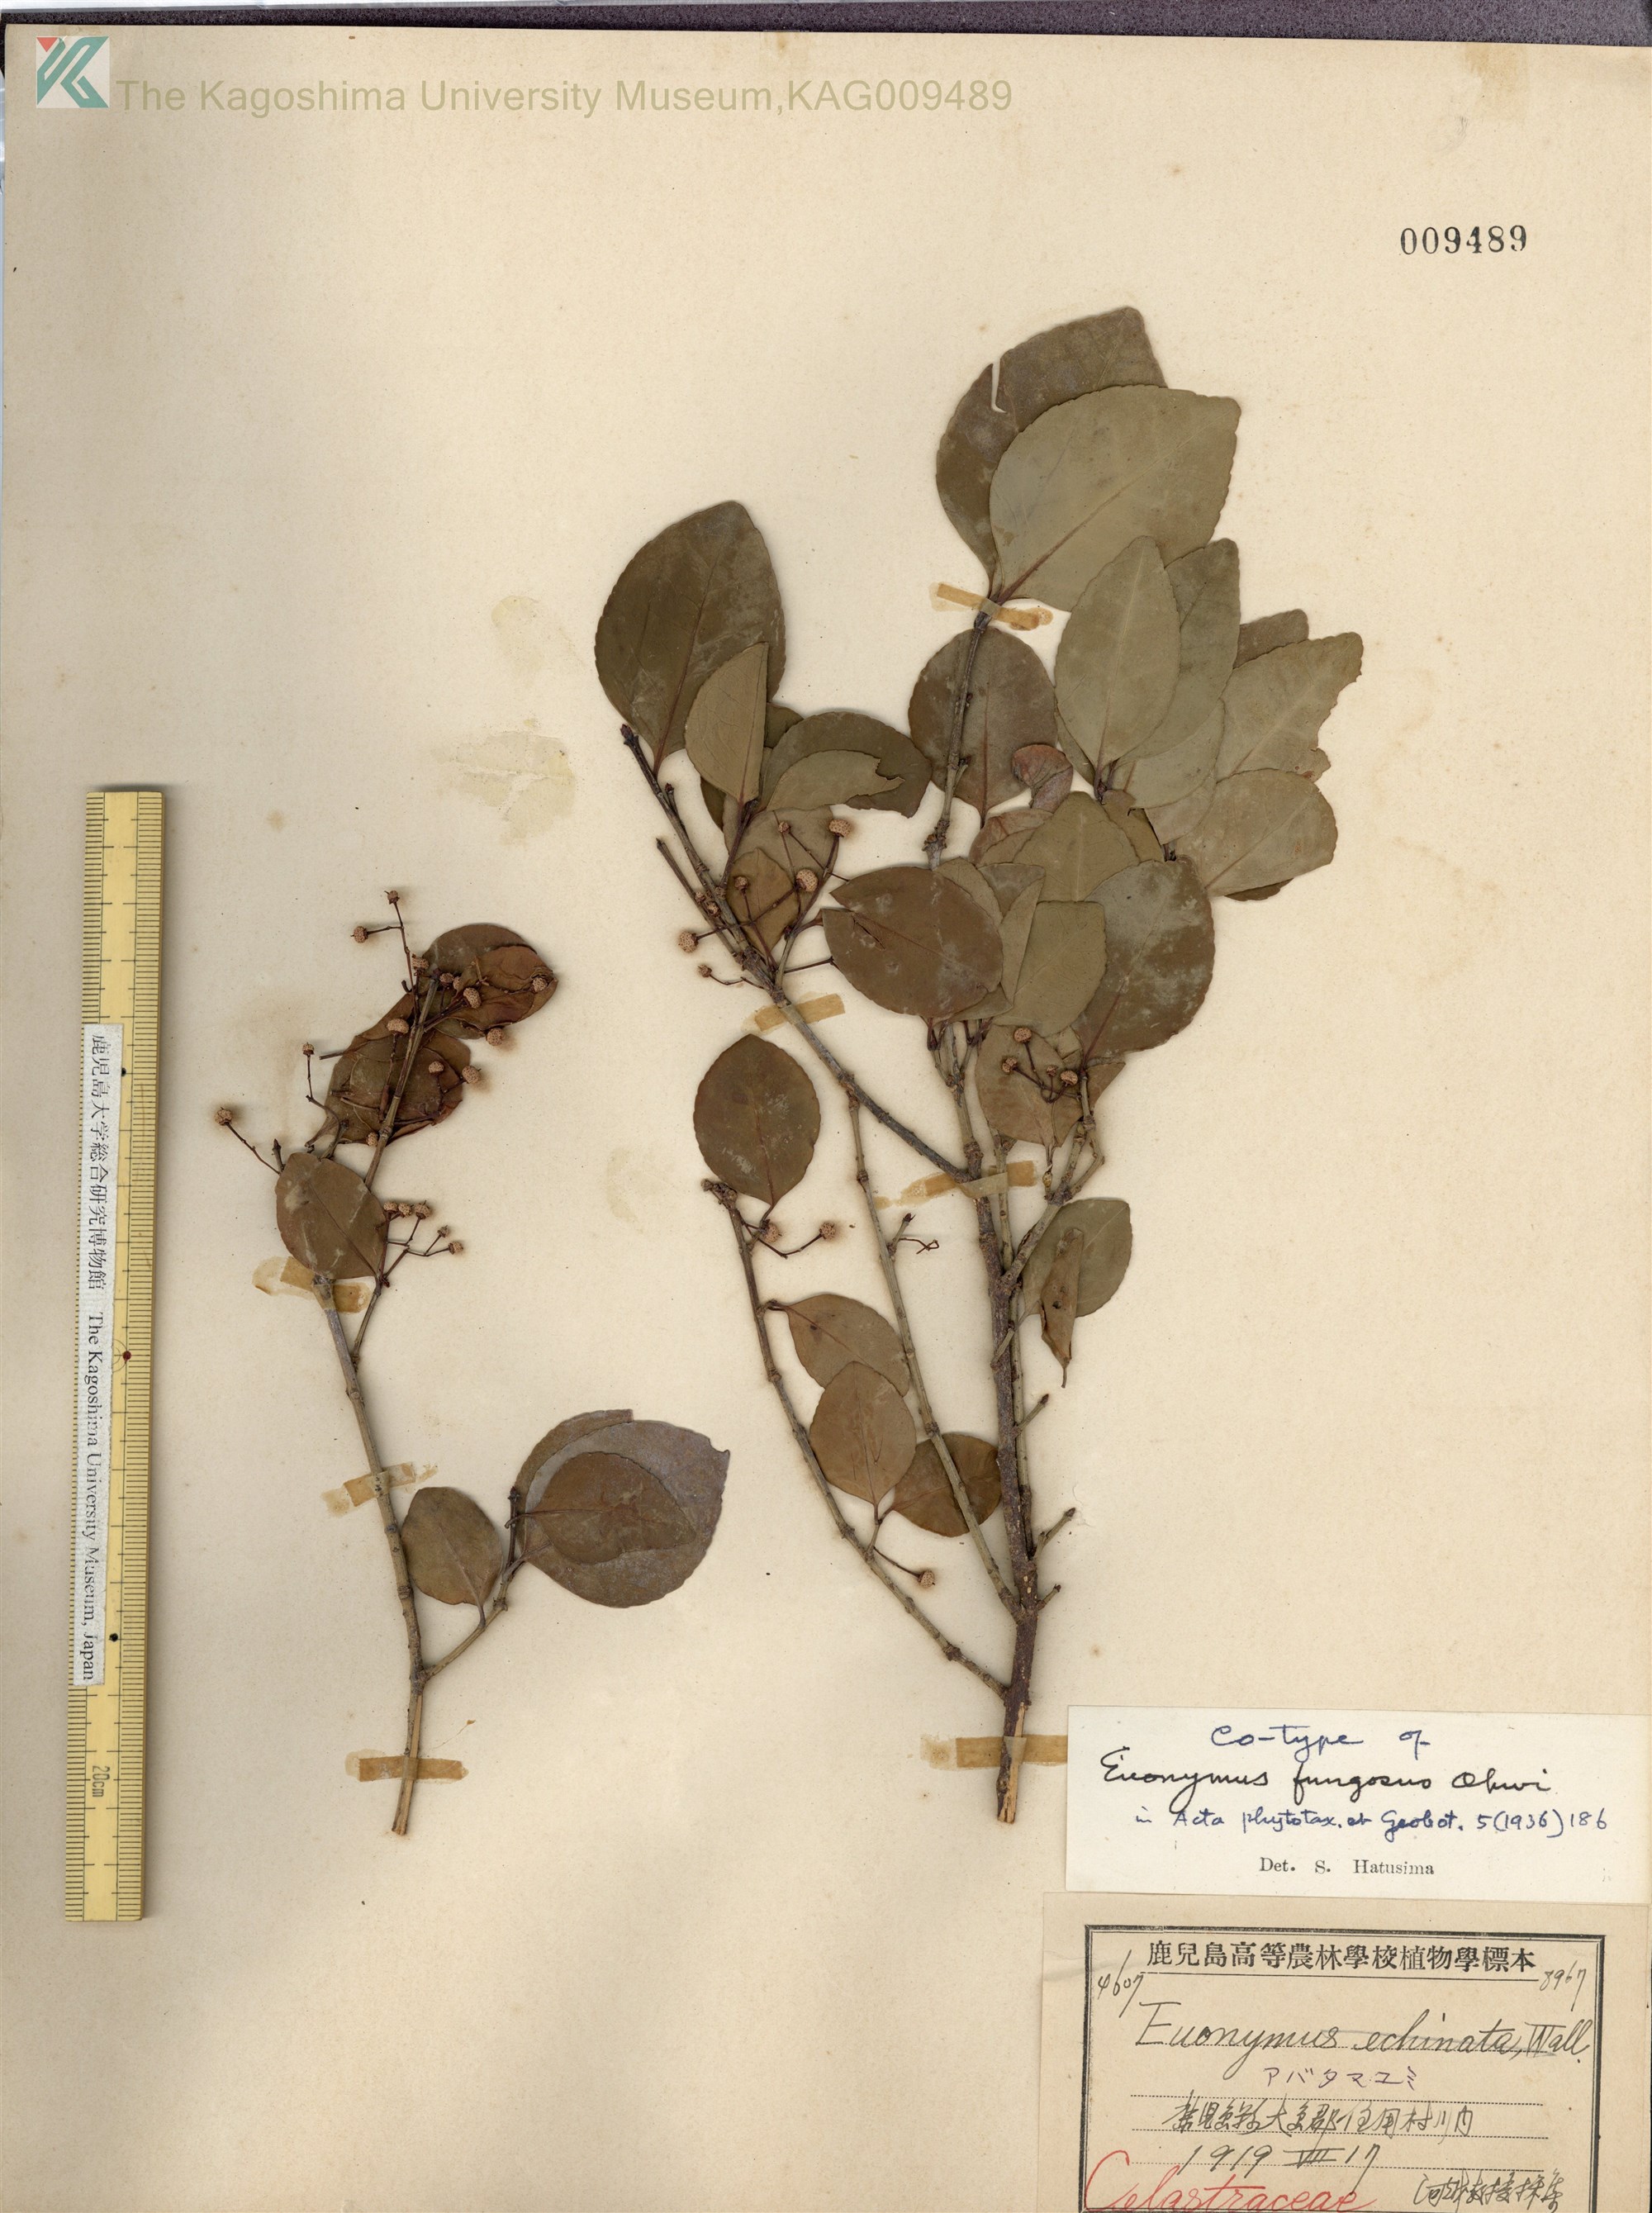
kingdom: Plantae
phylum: Tracheophyta
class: Magnoliopsida
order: Celastrales
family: Celastraceae
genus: Euonymus
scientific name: Euonymus echinatus
